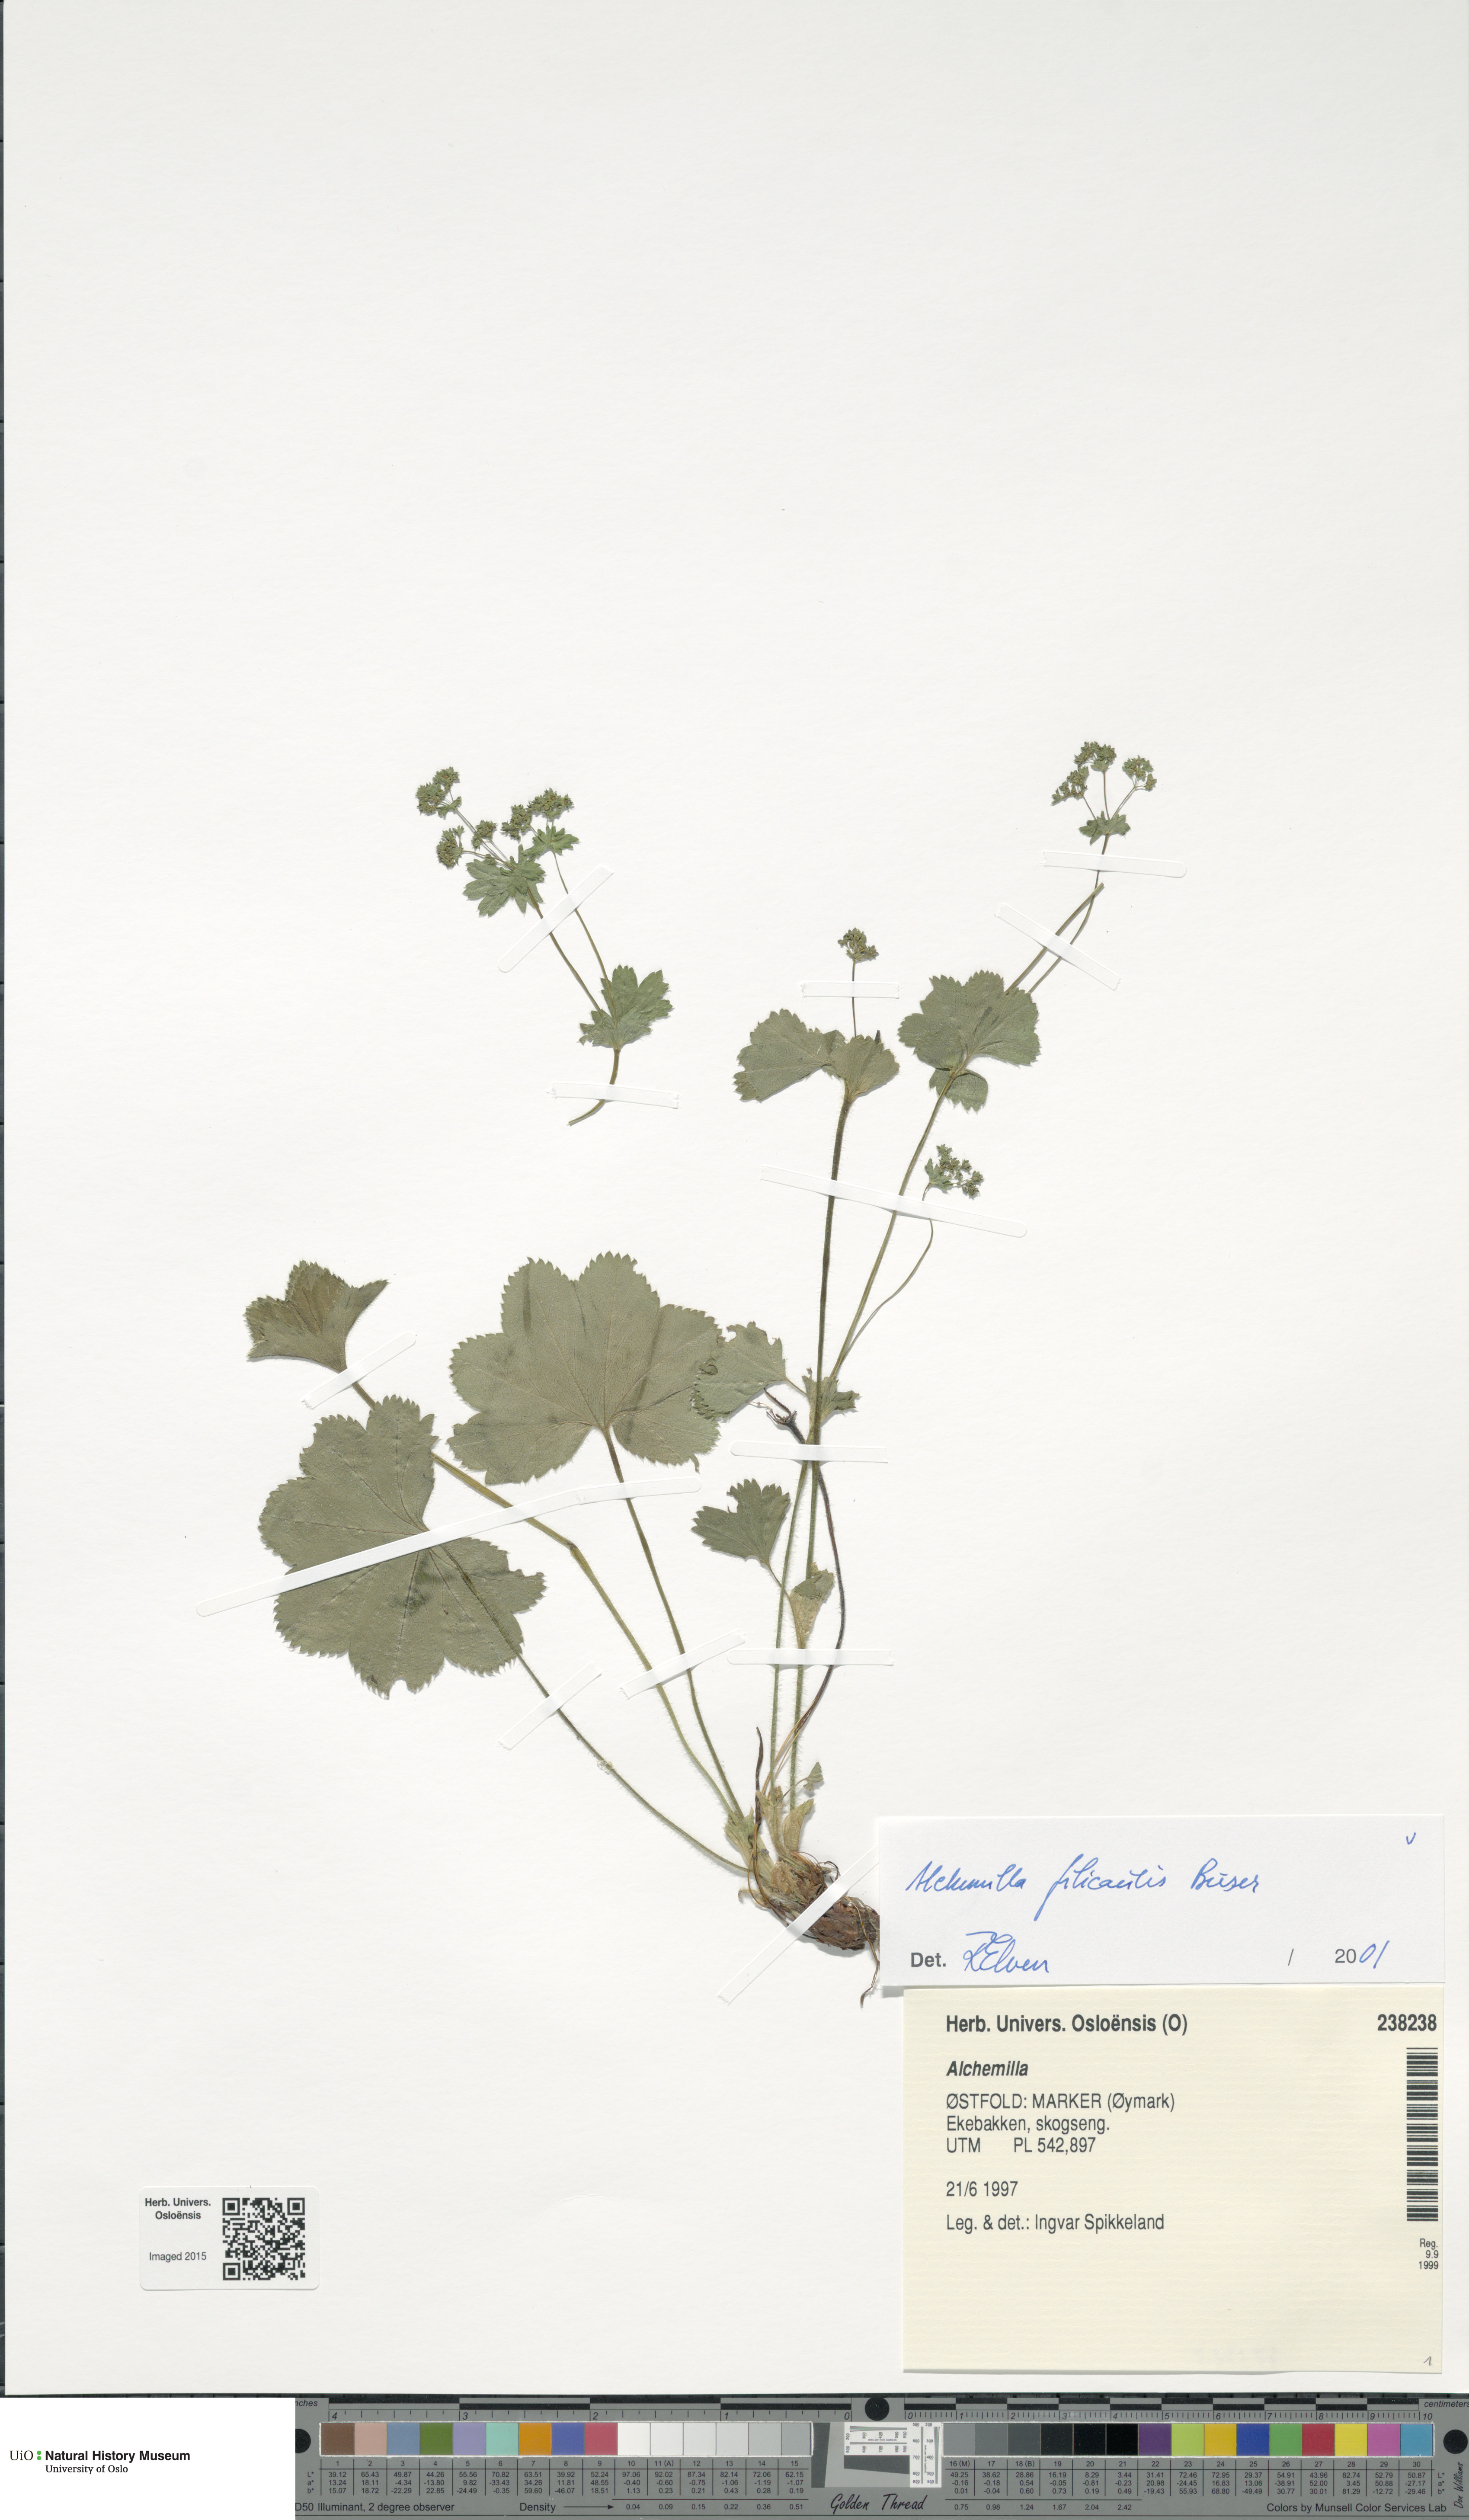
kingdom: Plantae
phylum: Tracheophyta
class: Magnoliopsida
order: Rosales
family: Rosaceae
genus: Alchemilla
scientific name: Alchemilla filicaulis
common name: Hairy lady's-mantle
